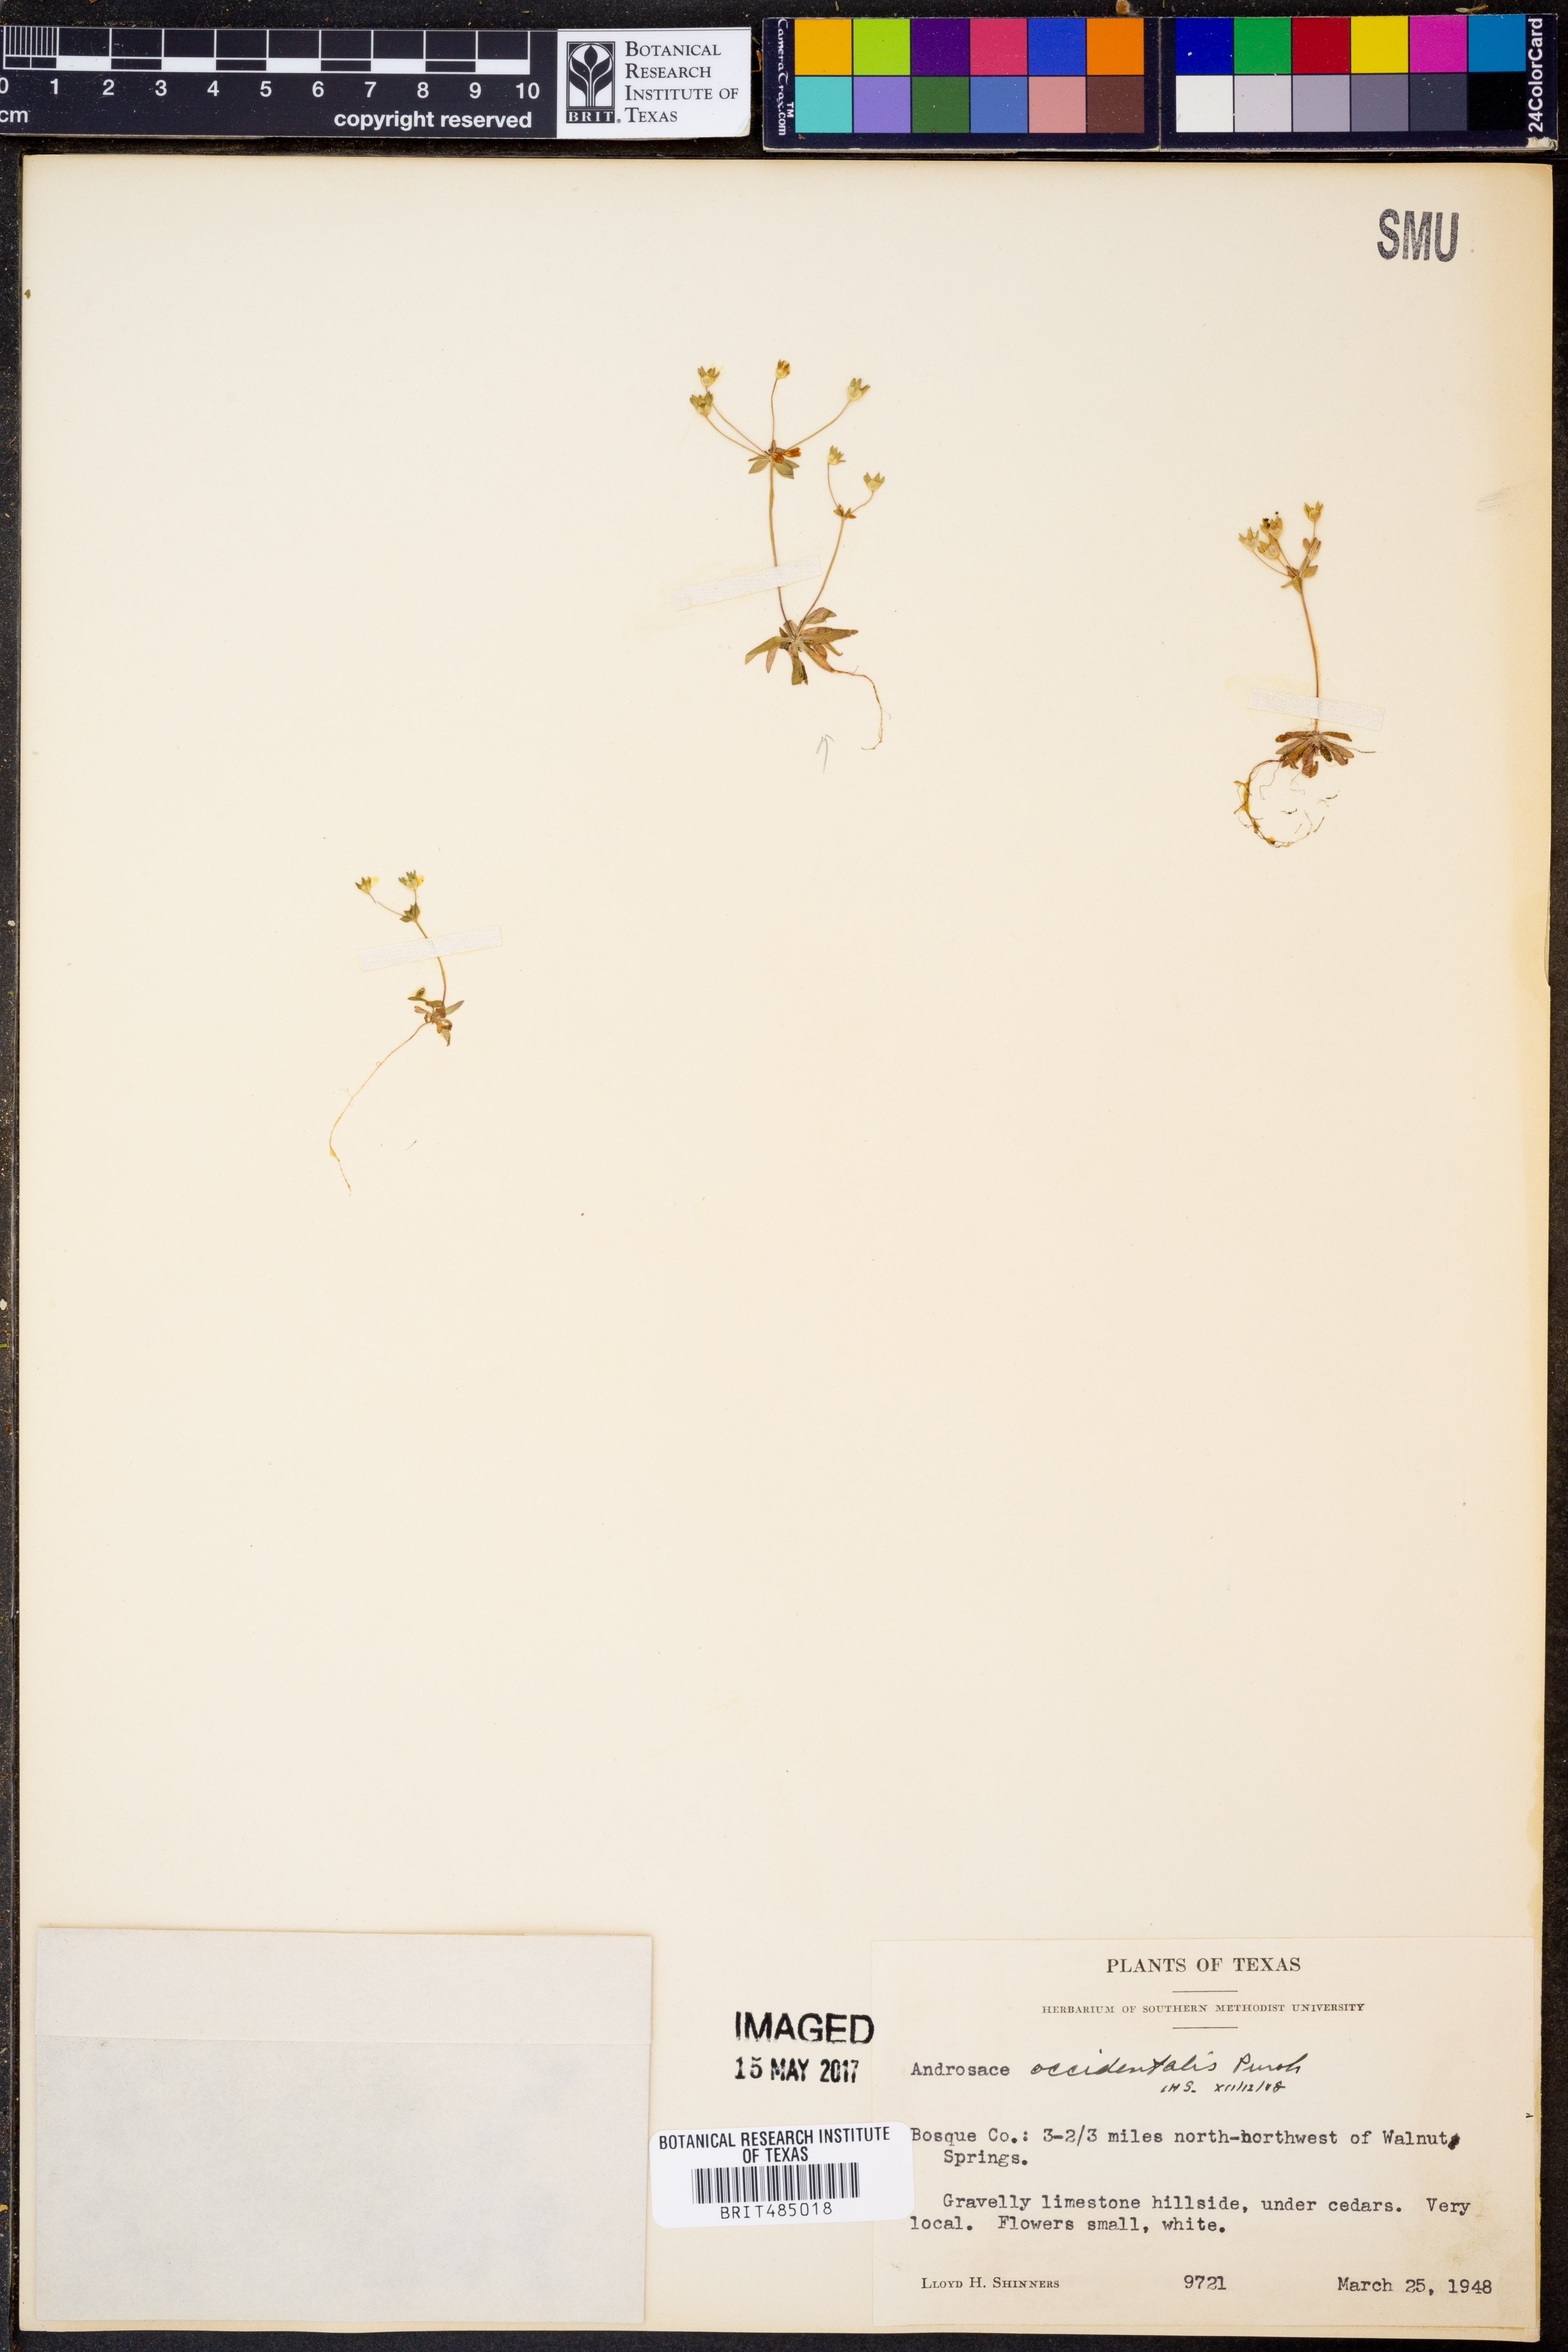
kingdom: Plantae
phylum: Tracheophyta
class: Magnoliopsida
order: Ericales
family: Primulaceae
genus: Androsace
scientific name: Androsace occidentalis
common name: West rock-jasmine
